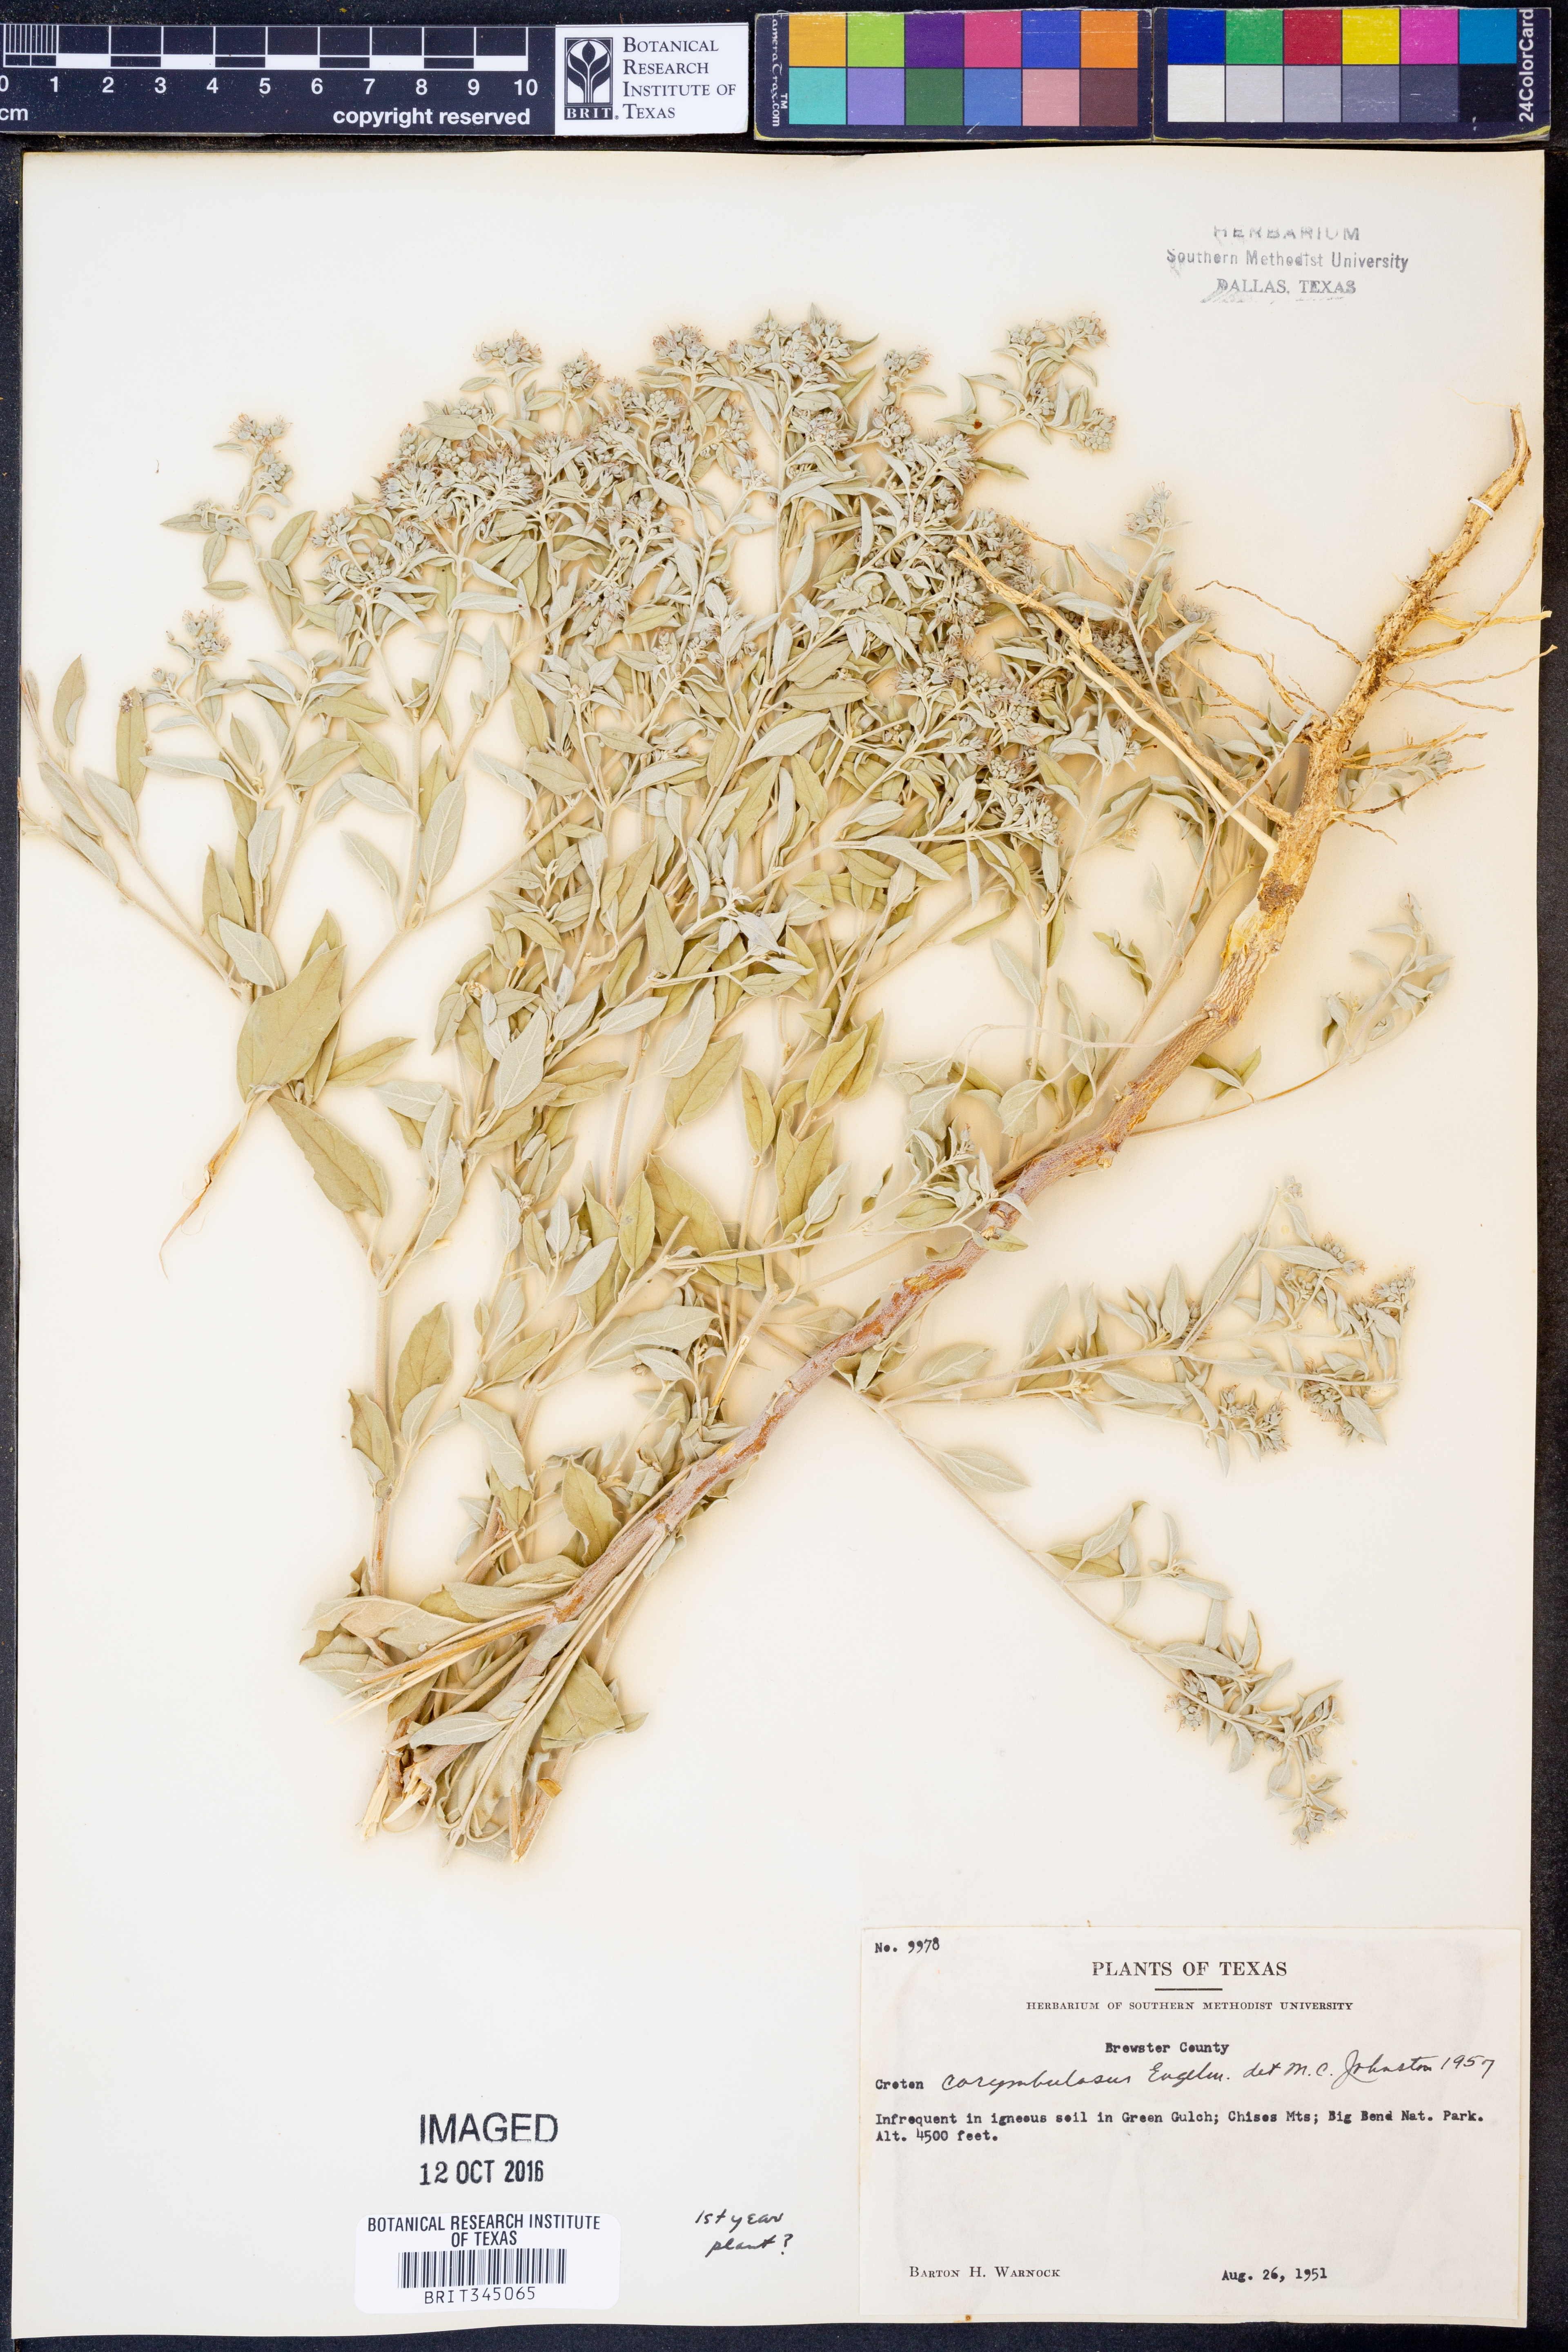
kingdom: Plantae
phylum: Tracheophyta
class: Magnoliopsida
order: Malpighiales
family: Euphorbiaceae
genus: Croton
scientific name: Croton pottsii
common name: Leatherweed
